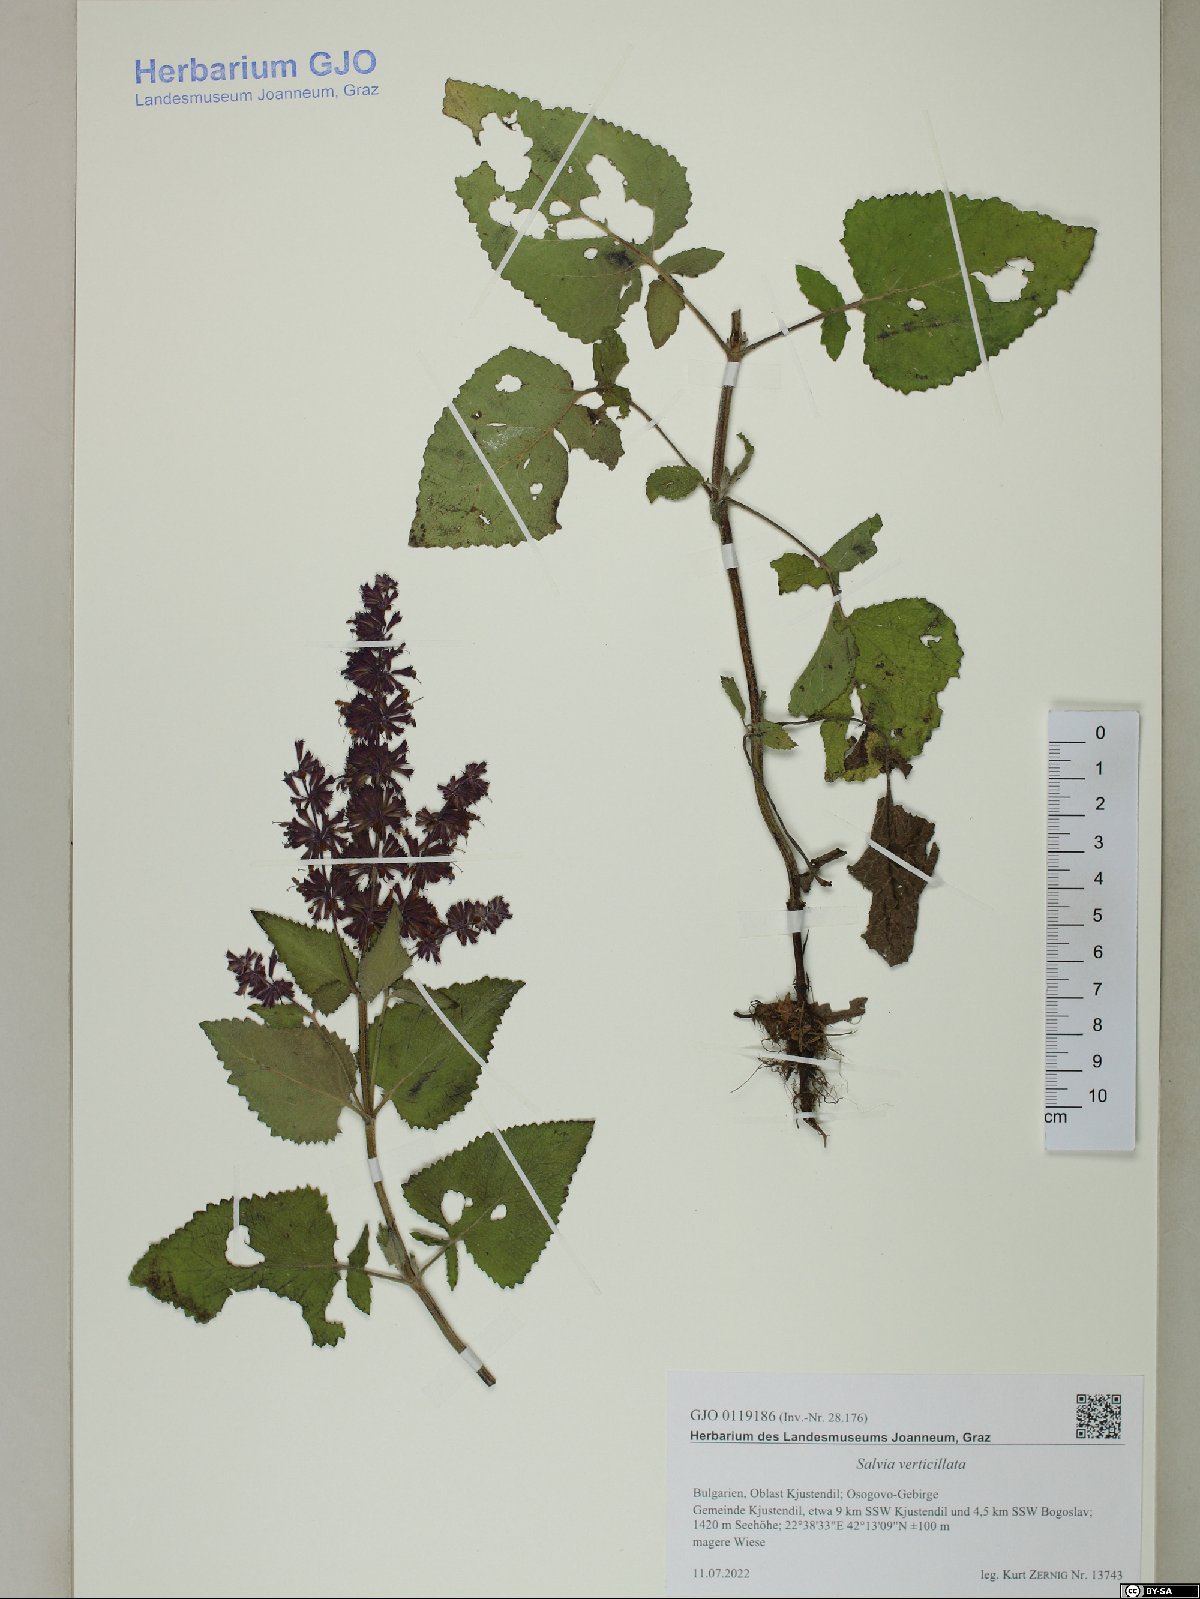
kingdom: Plantae
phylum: Tracheophyta
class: Magnoliopsida
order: Lamiales
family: Lamiaceae
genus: Salvia
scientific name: Salvia verticillata
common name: Whorled clary
